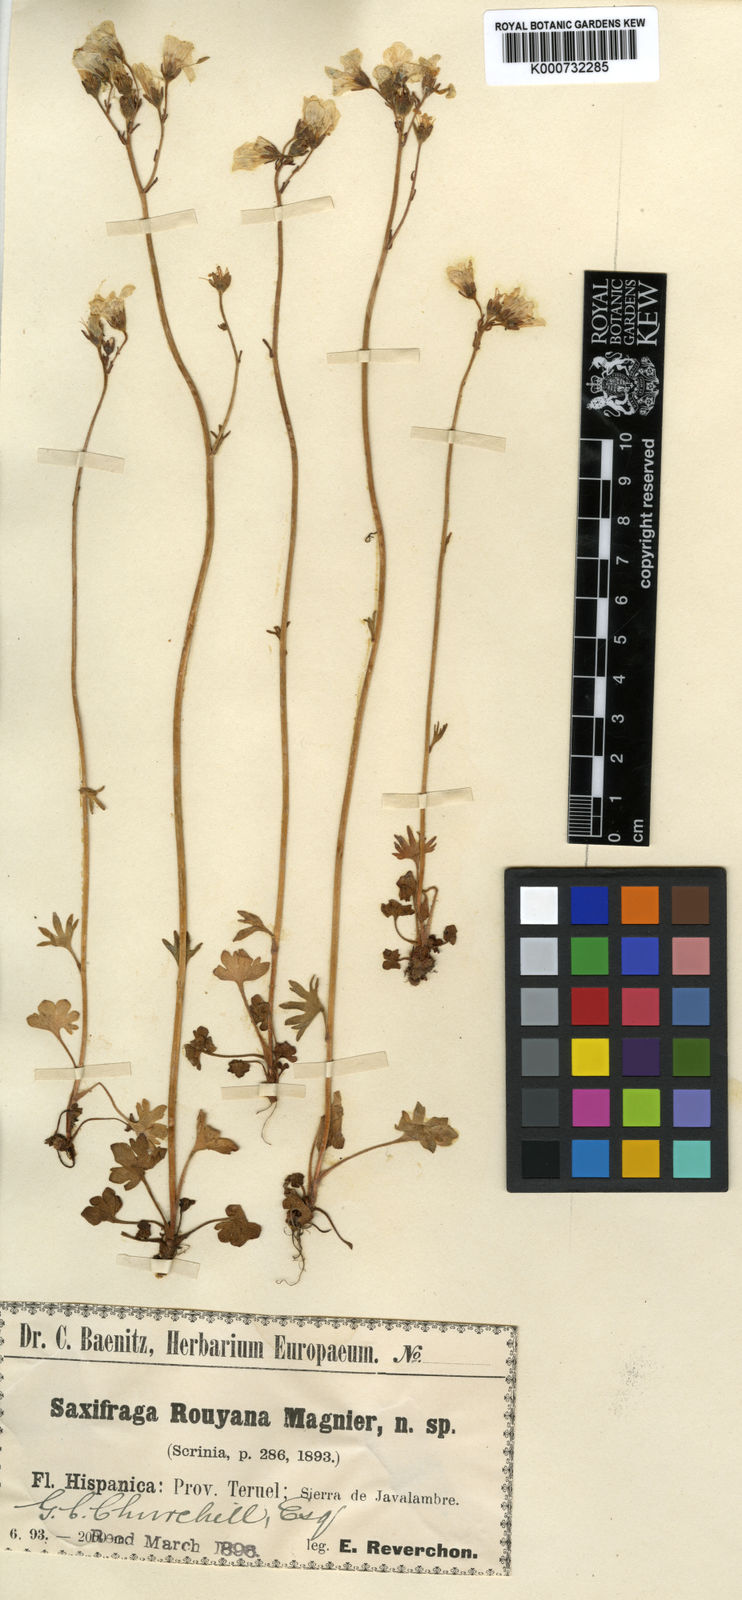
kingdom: Plantae
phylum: Tracheophyta
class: Magnoliopsida
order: Saxifragales
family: Saxifragaceae
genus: Saxifraga
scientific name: Saxifraga granulata
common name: Meadow saxifrage
